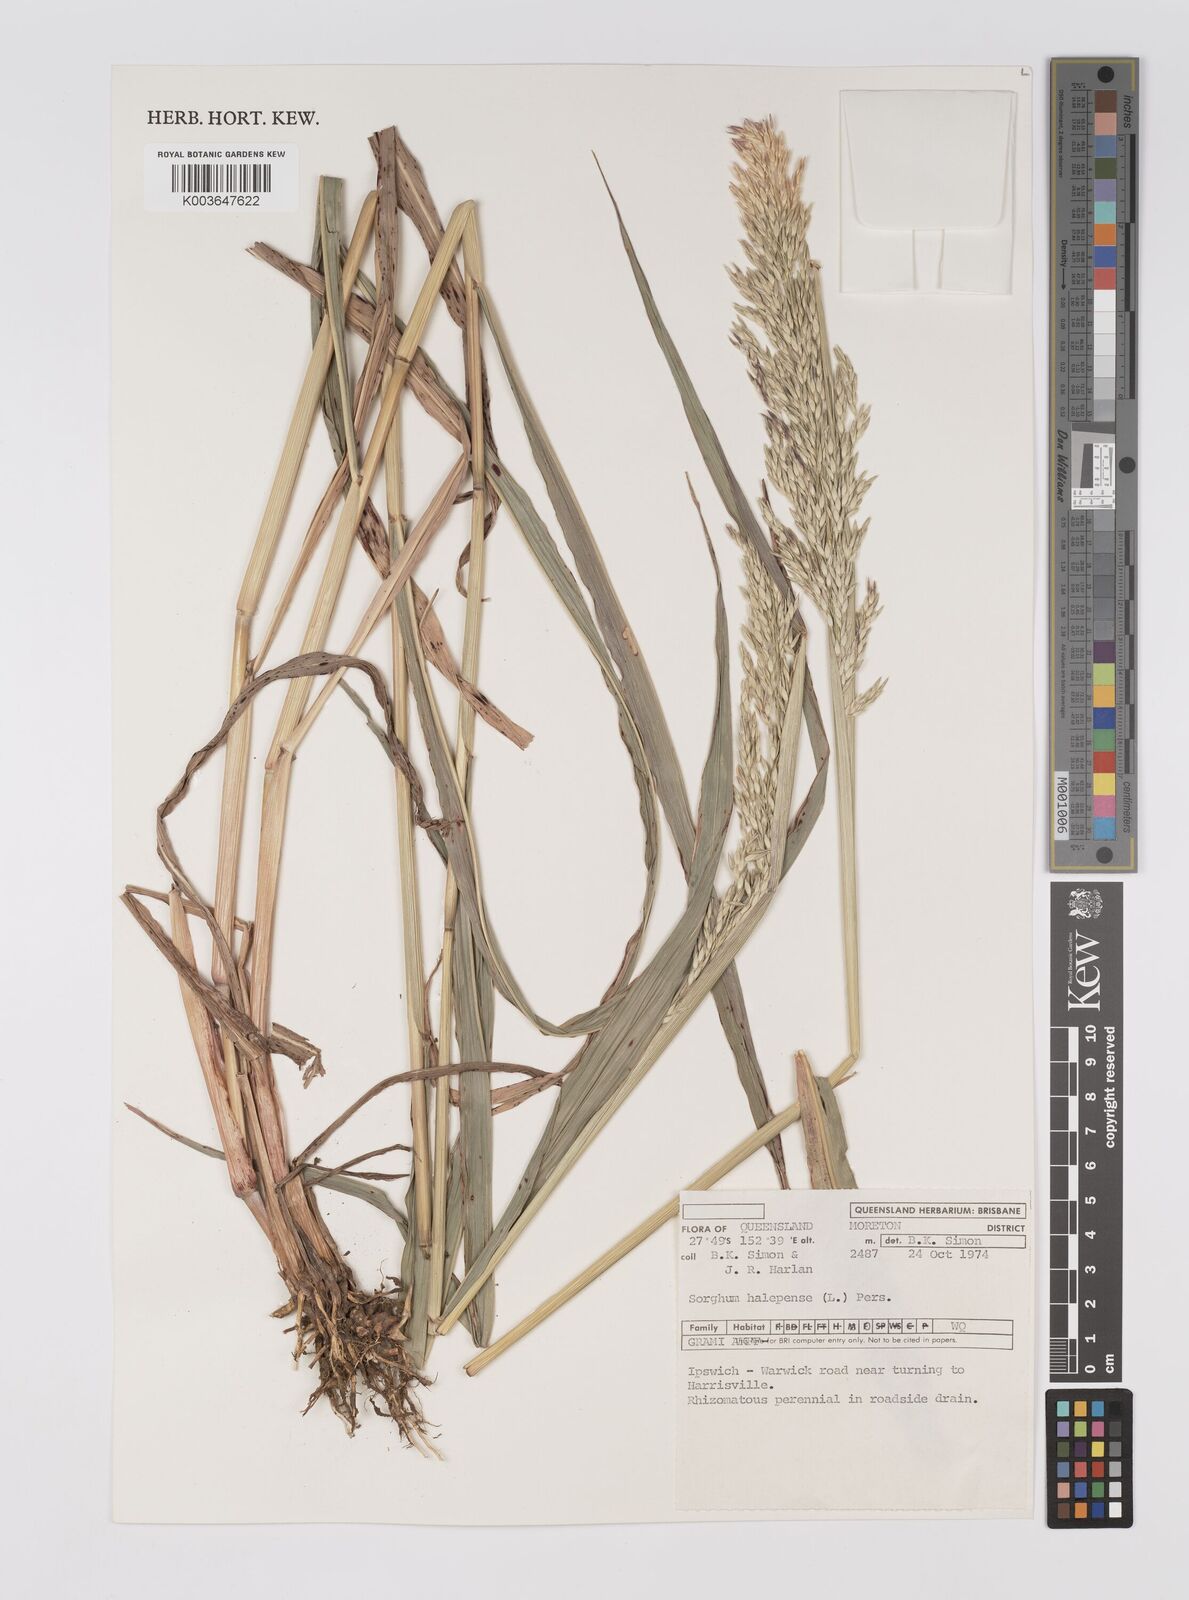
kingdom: Plantae
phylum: Tracheophyta
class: Liliopsida
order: Poales
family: Poaceae
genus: Sorghum
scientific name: Sorghum halepense
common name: Johnson-grass
